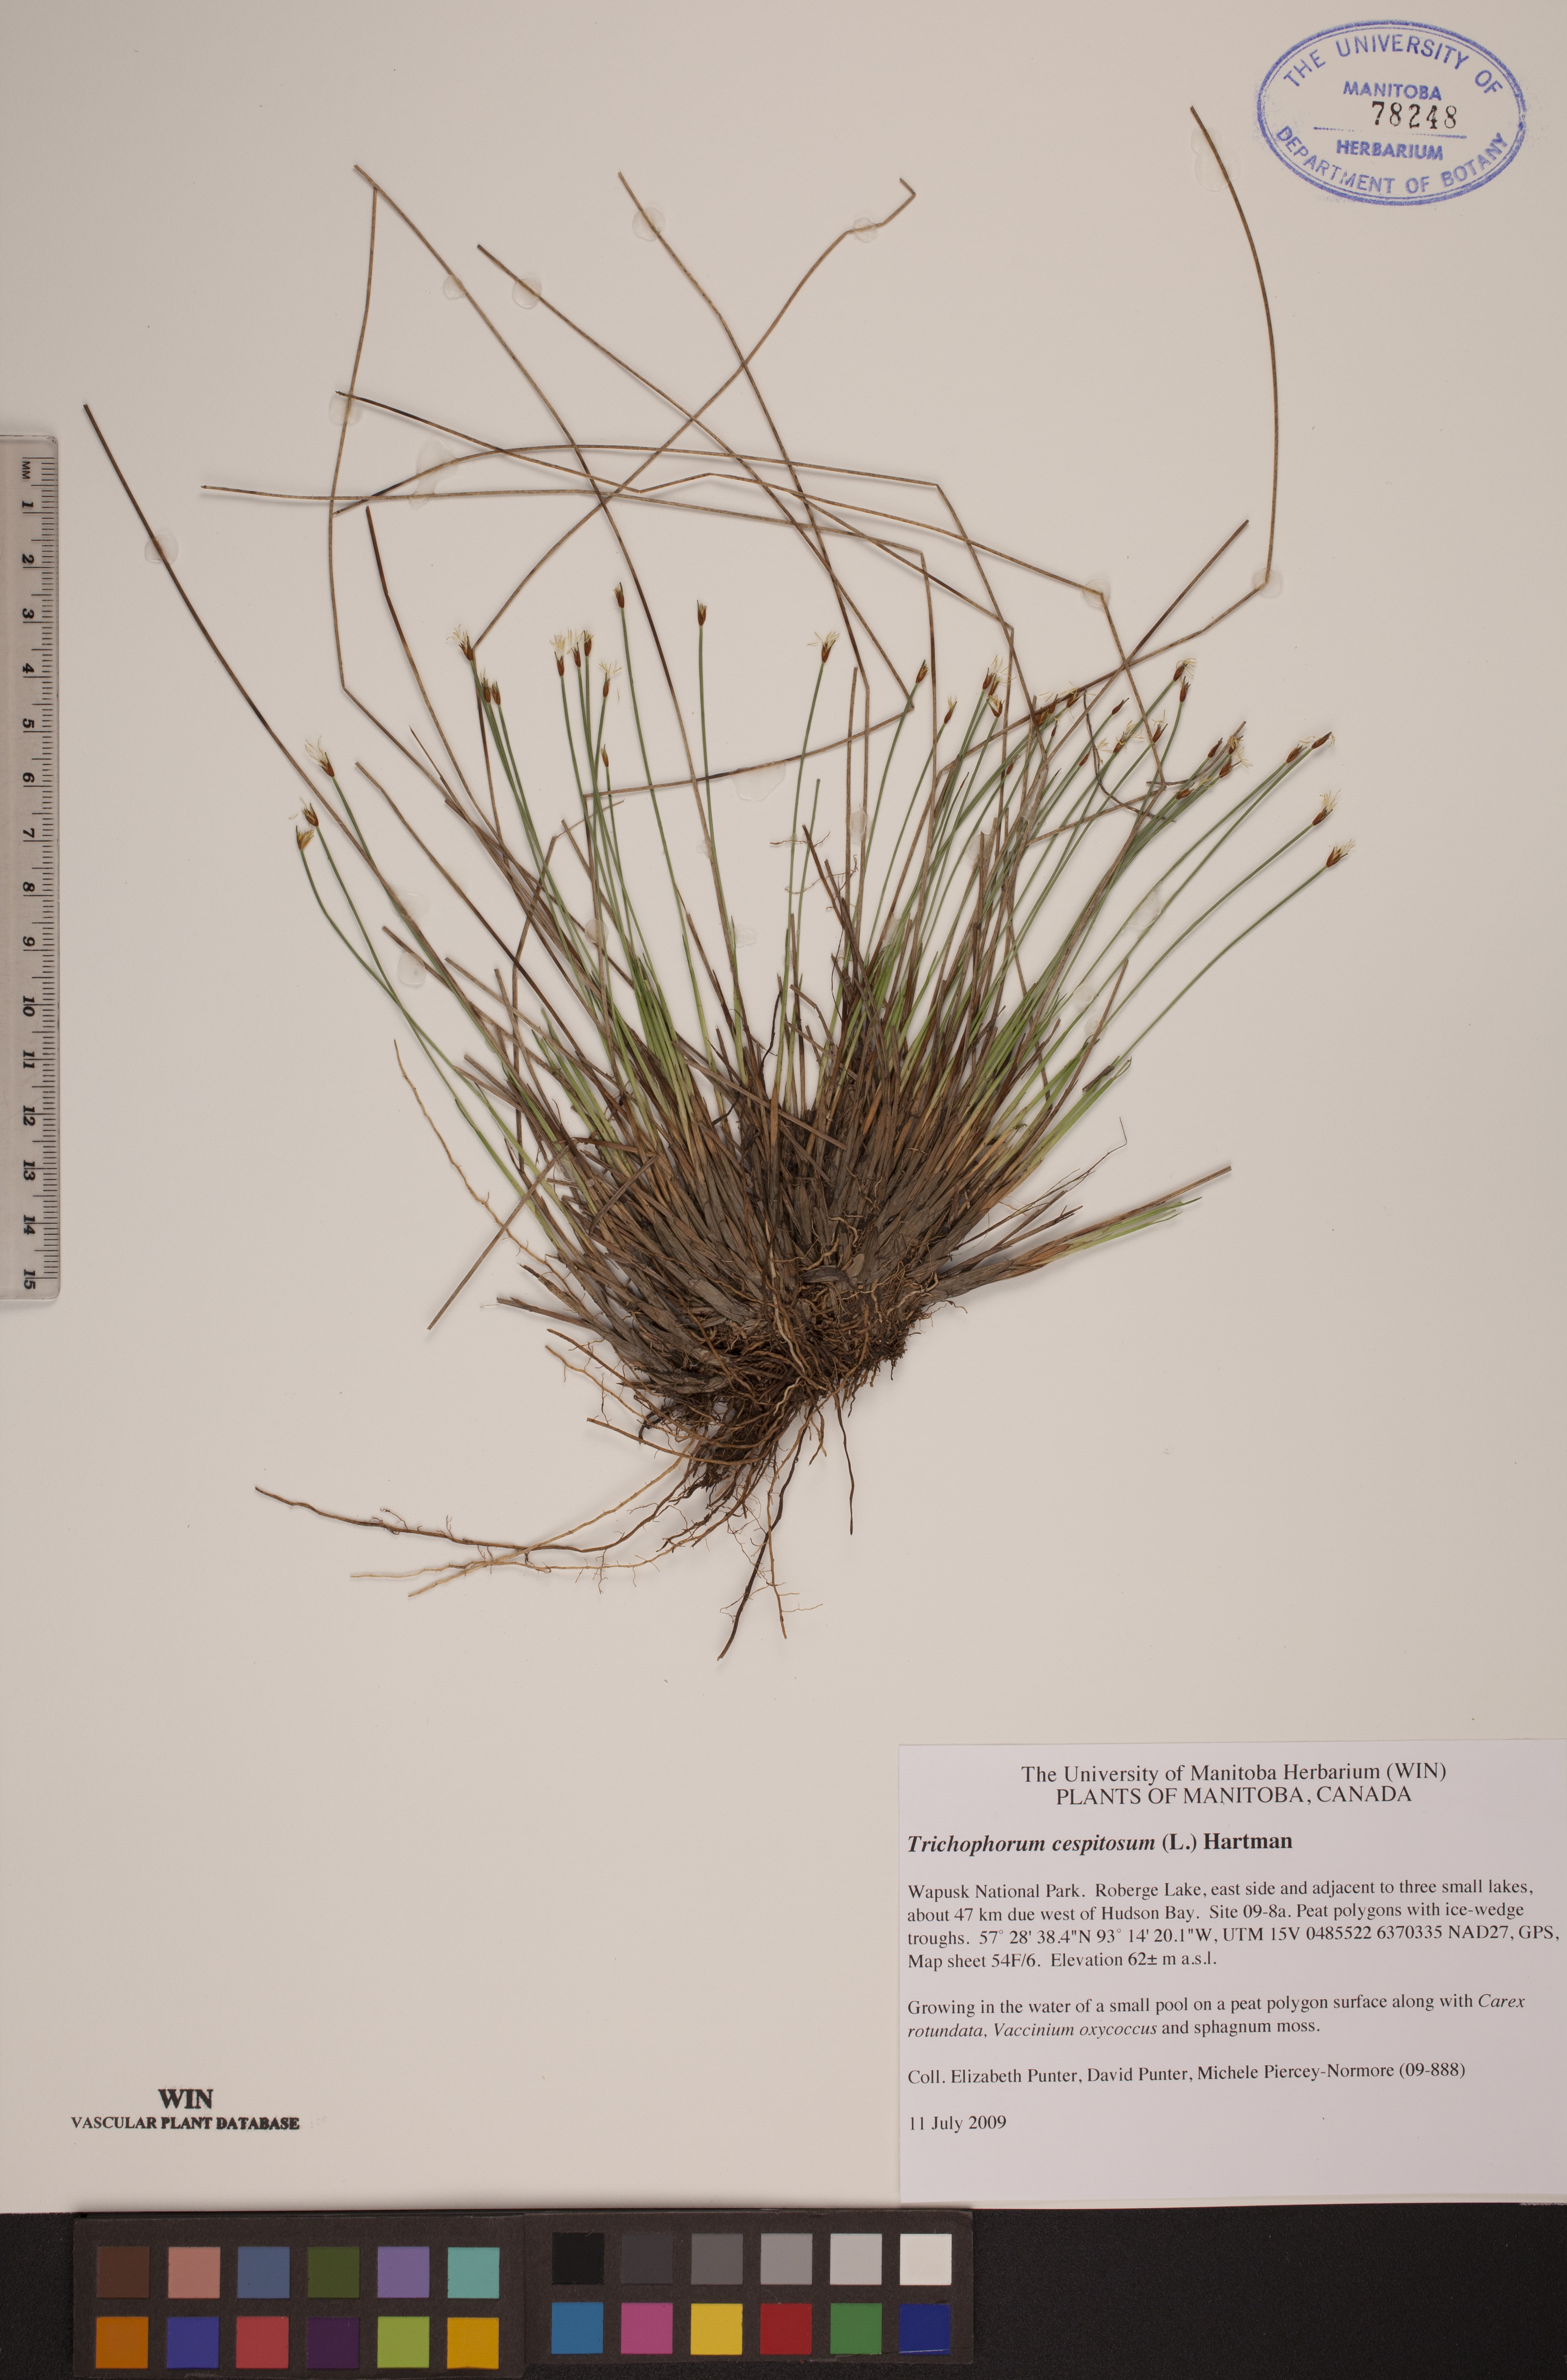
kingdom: Plantae
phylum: Tracheophyta
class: Liliopsida
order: Poales
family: Cyperaceae
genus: Trichophorum
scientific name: Trichophorum cespitosum
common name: Cespitose bulrush
